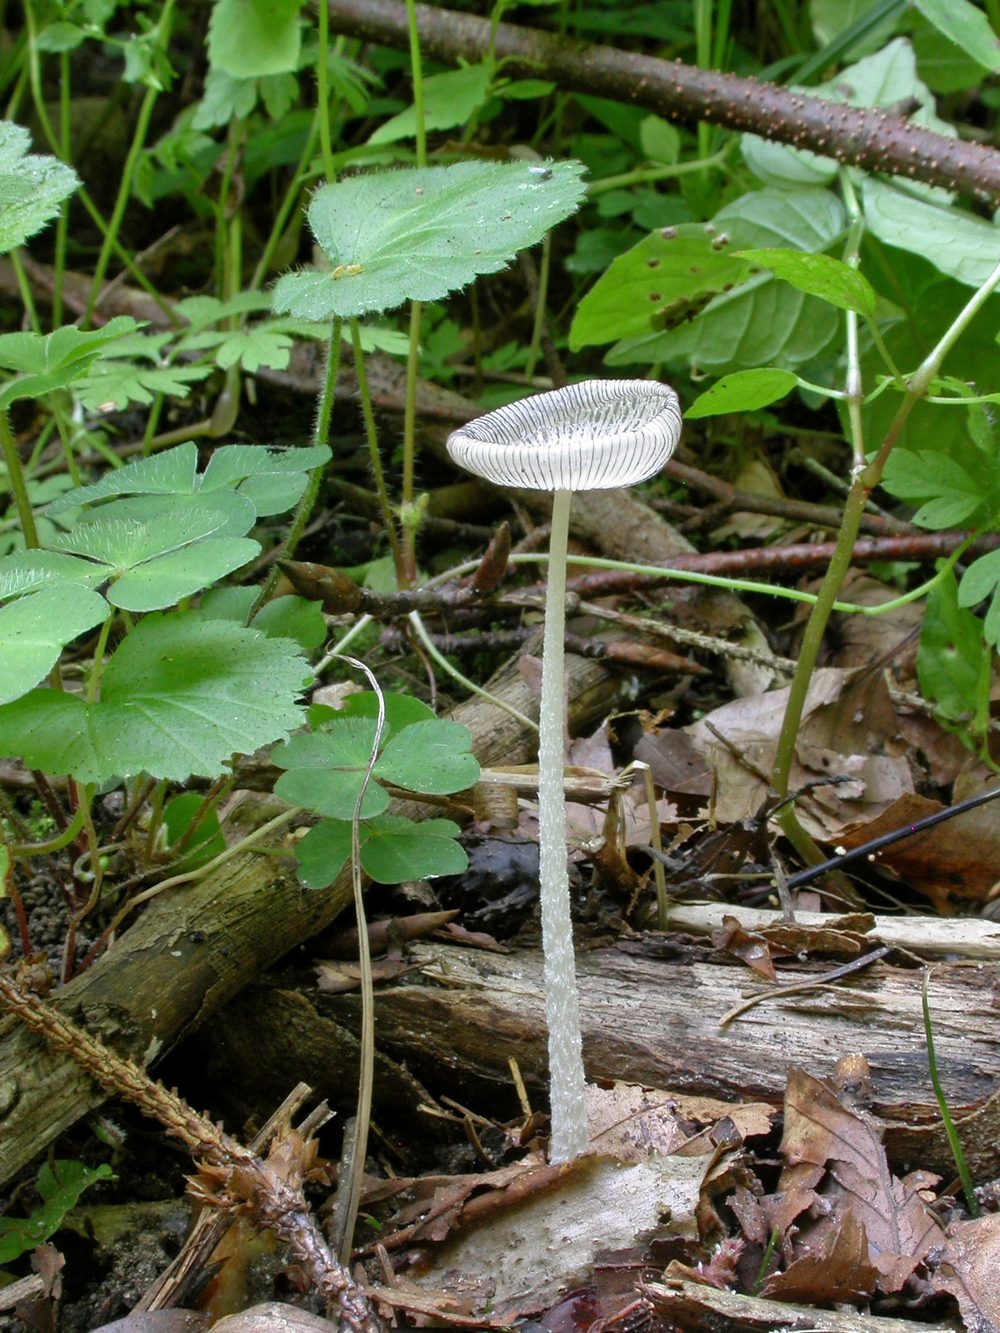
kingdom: Fungi
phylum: Basidiomycota
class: Agaricomycetes
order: Agaricales
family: Psathyrellaceae
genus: Coprinopsis
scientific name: Coprinopsis lagopus
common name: dunstokket blækhat
